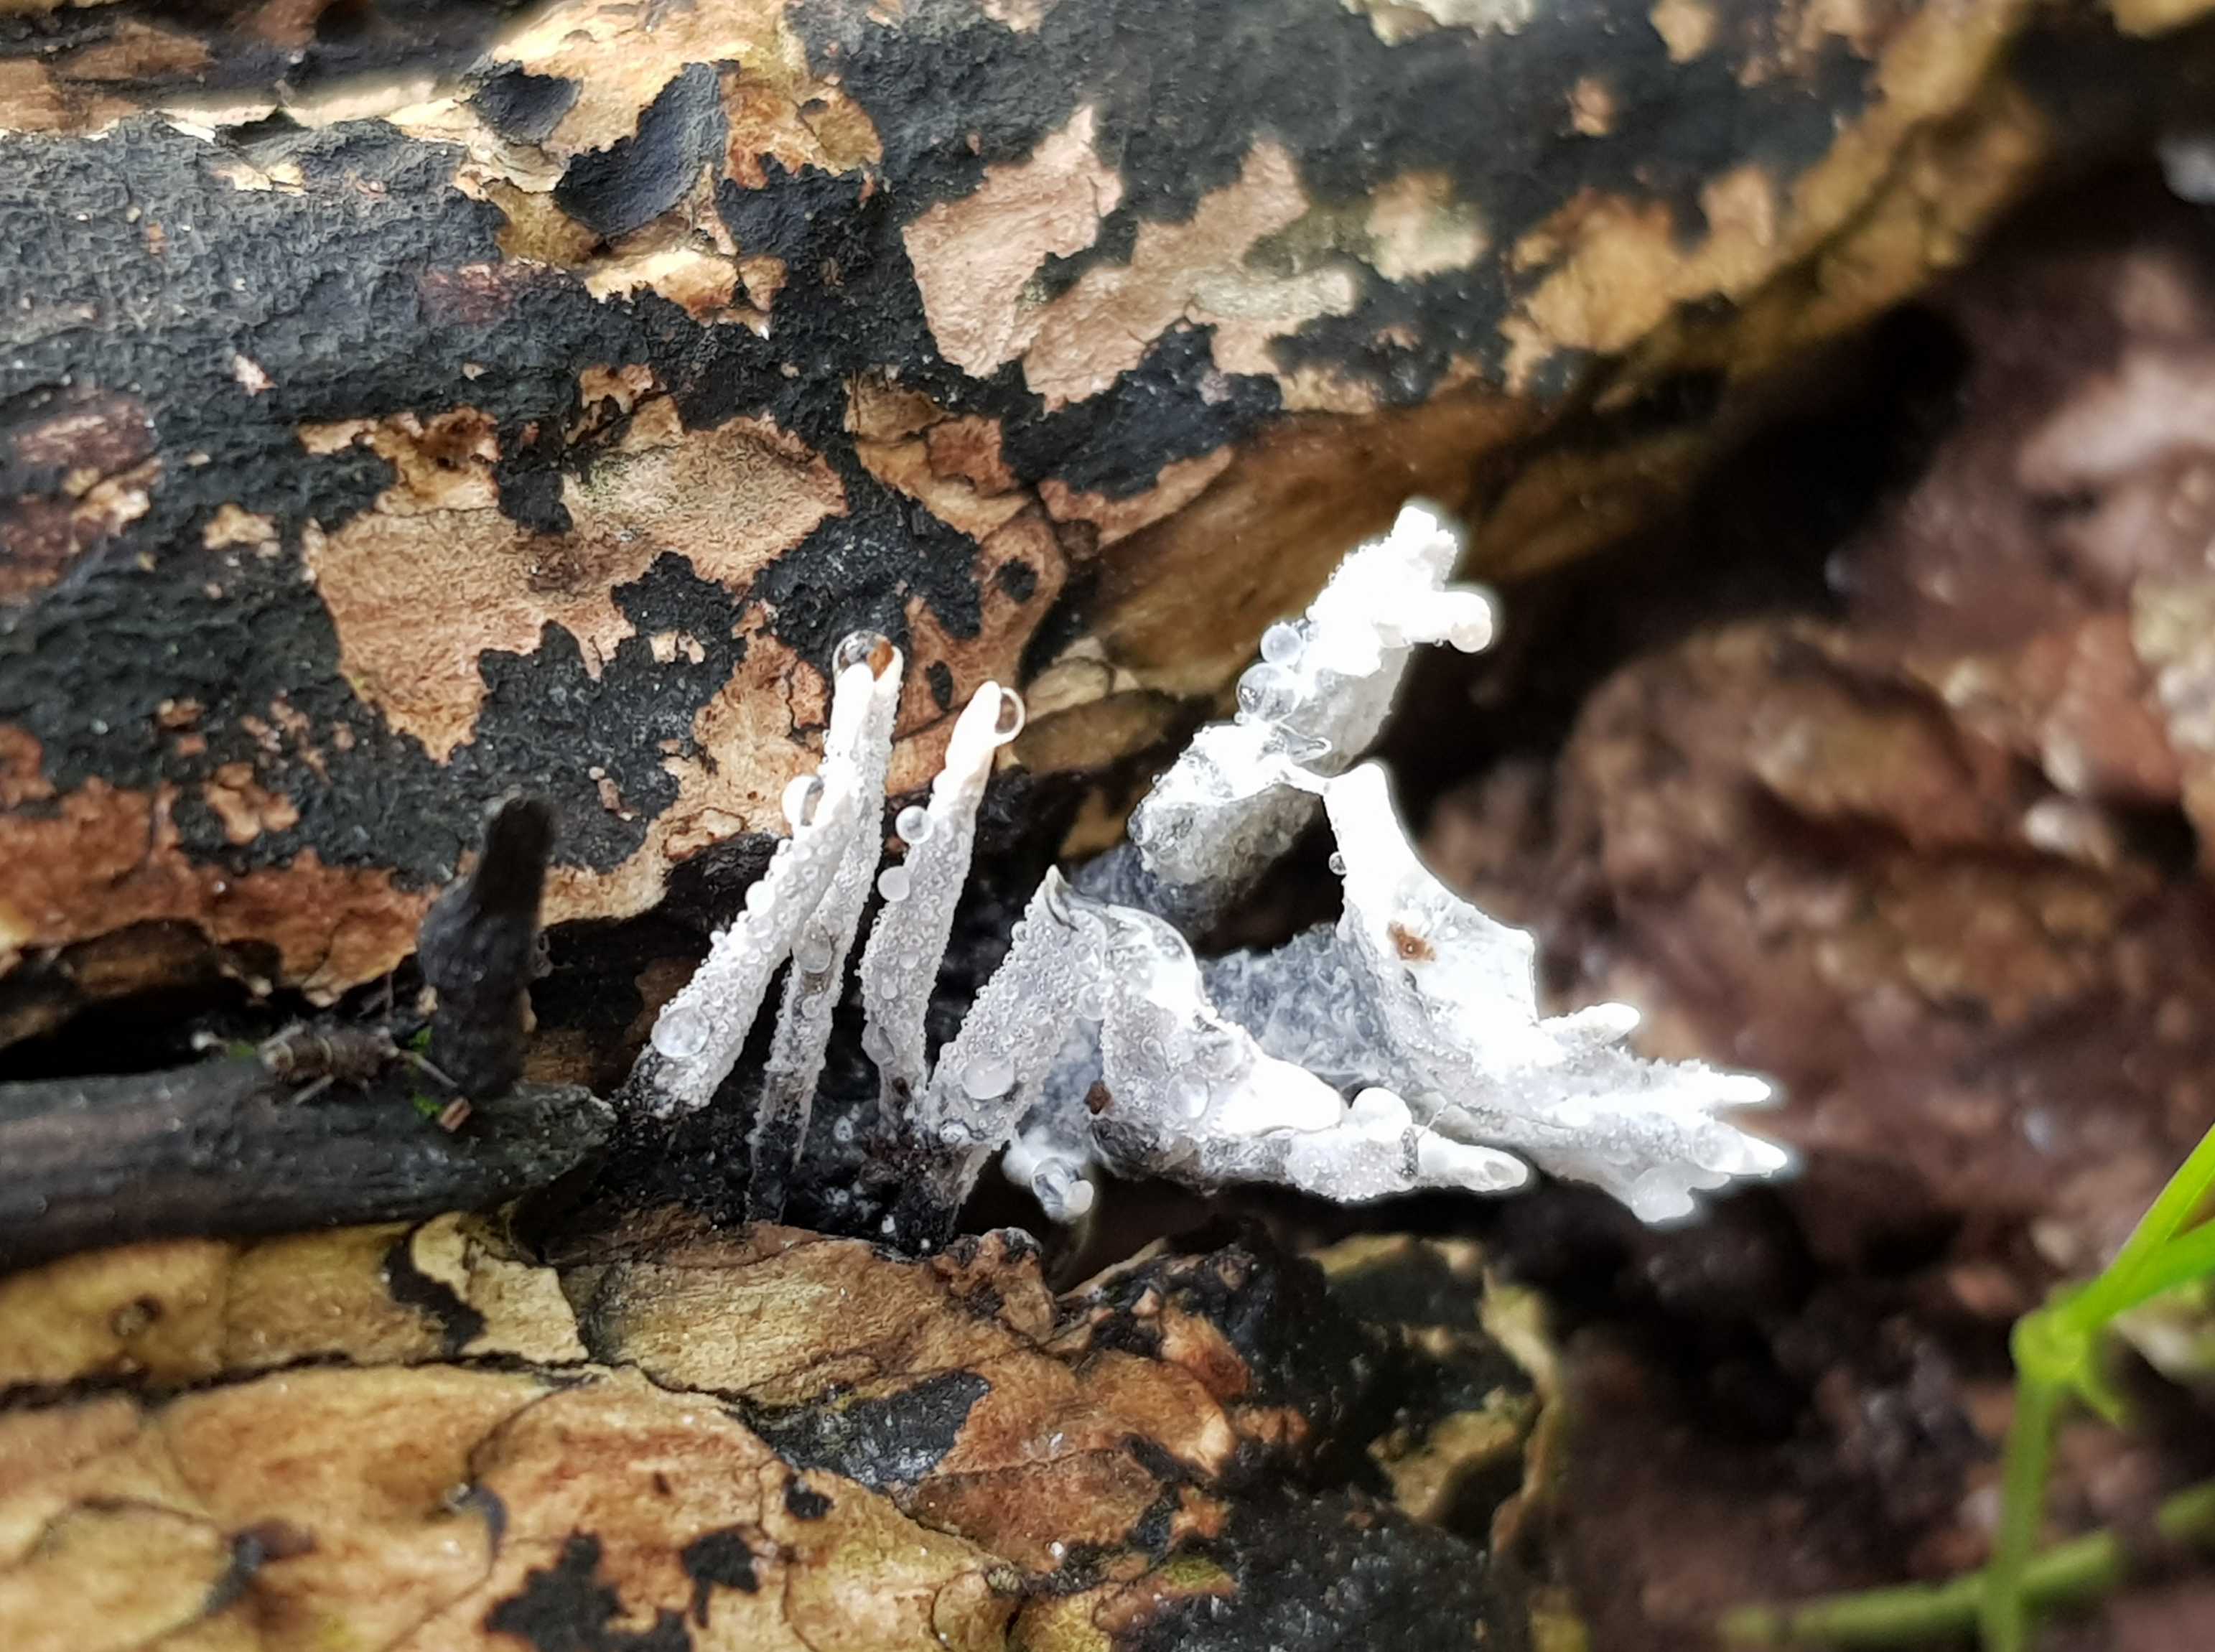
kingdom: Fungi
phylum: Ascomycota
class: Sordariomycetes
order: Xylariales
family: Xylariaceae
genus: Xylaria
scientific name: Xylaria hypoxylon
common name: grenet stødsvamp
